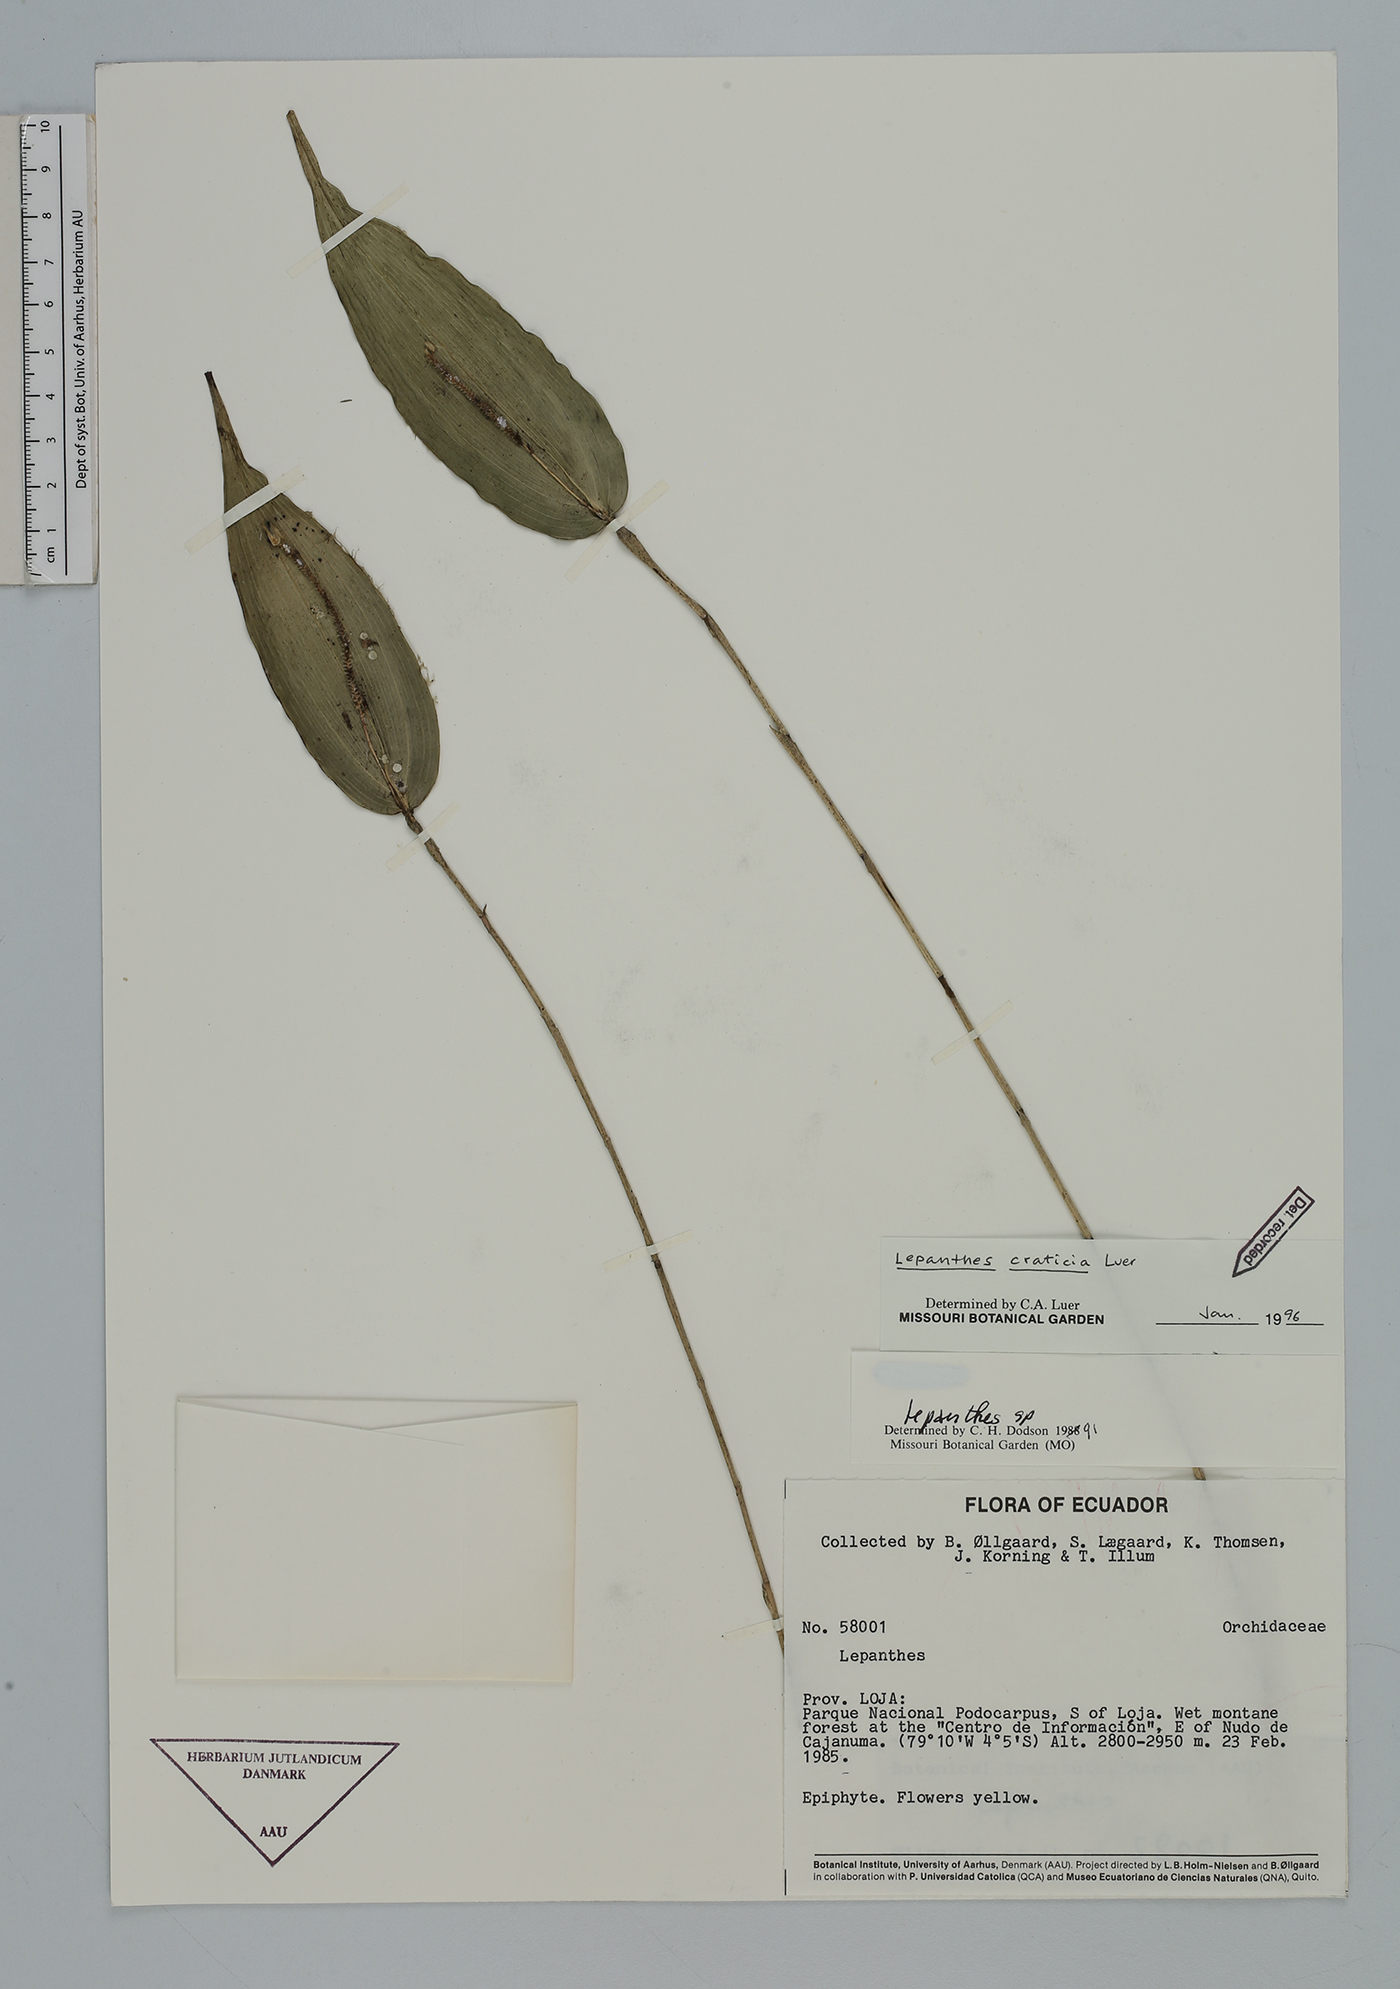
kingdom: Plantae
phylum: Tracheophyta
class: Liliopsida
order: Asparagales
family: Orchidaceae
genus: Lepanthes
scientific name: Lepanthes craticia
